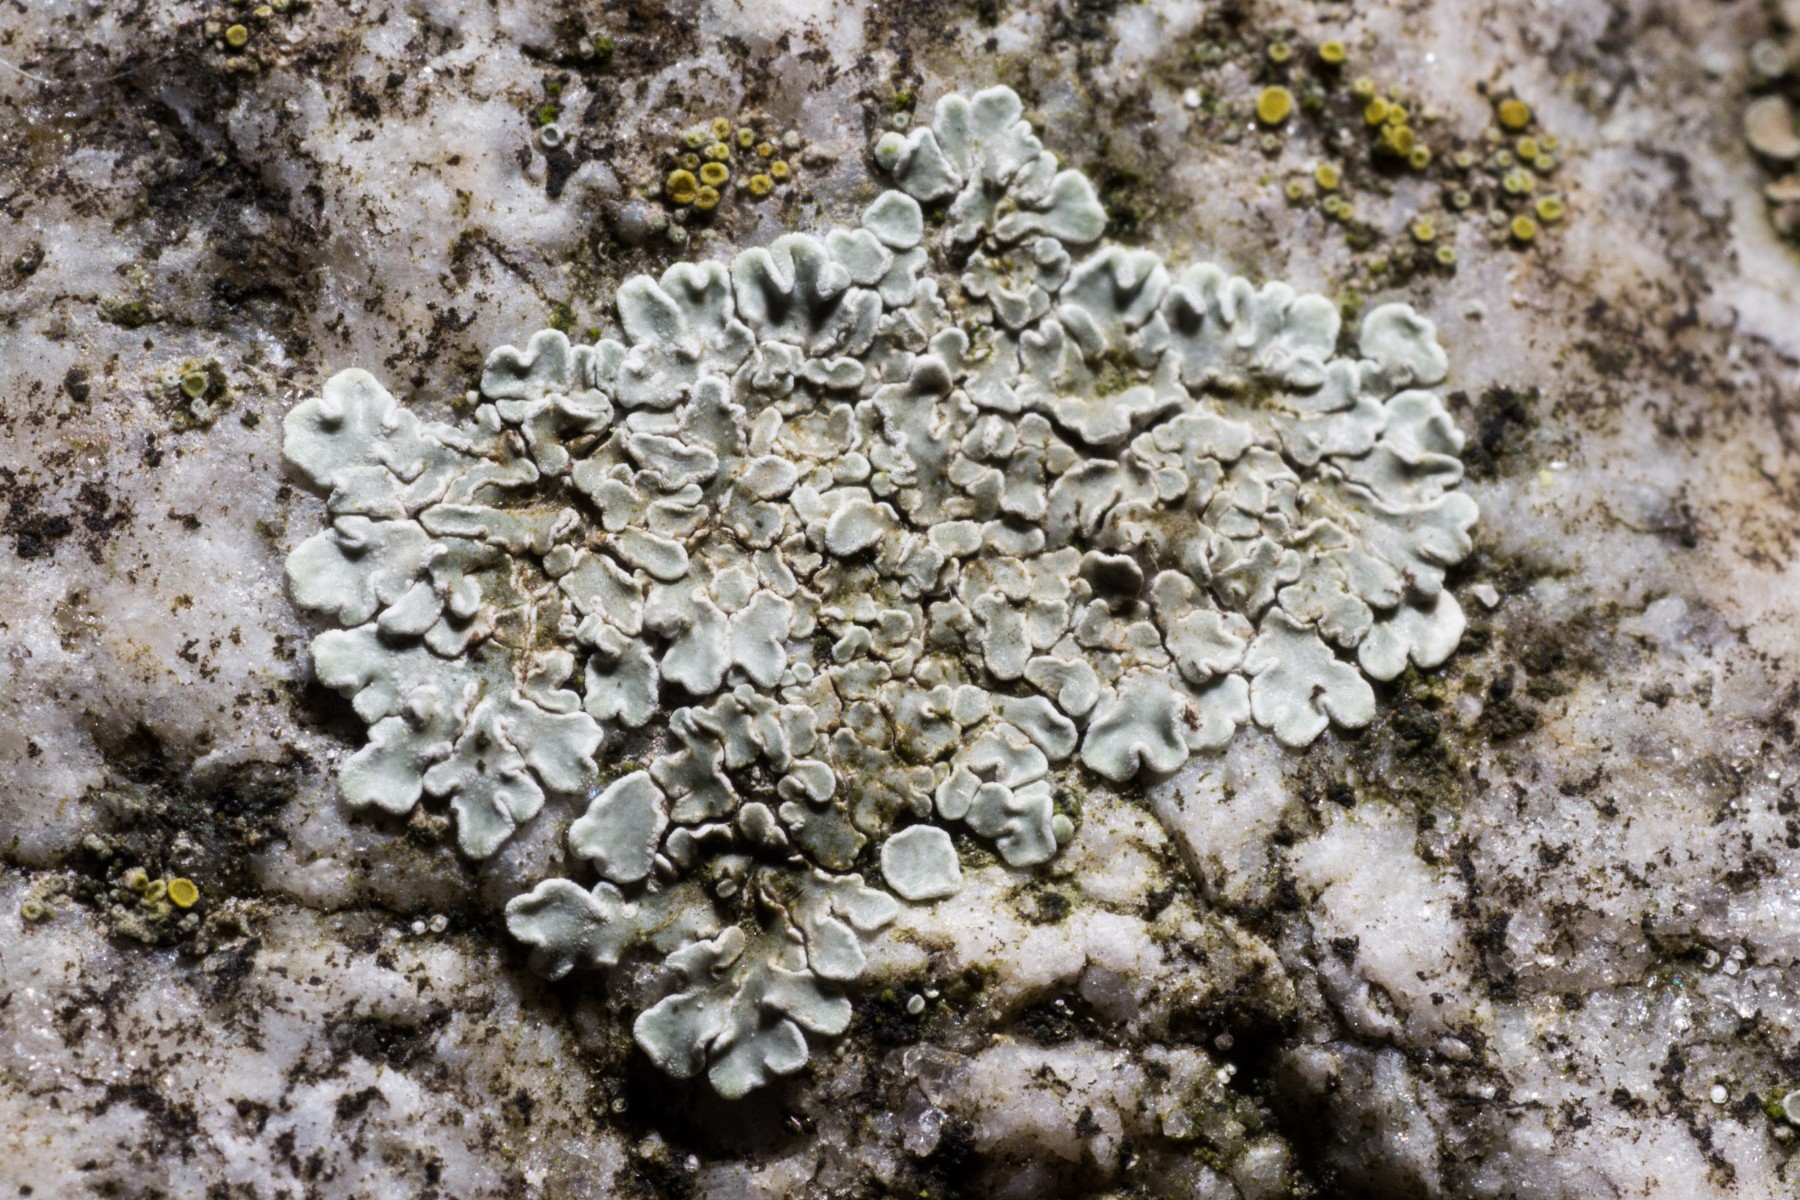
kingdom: Fungi
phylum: Ascomycota
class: Lecanoromycetes
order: Lecanorales
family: Lecanoraceae
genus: Protoparmeliopsis
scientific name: Protoparmeliopsis muralis
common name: randfliget kantskivelav
